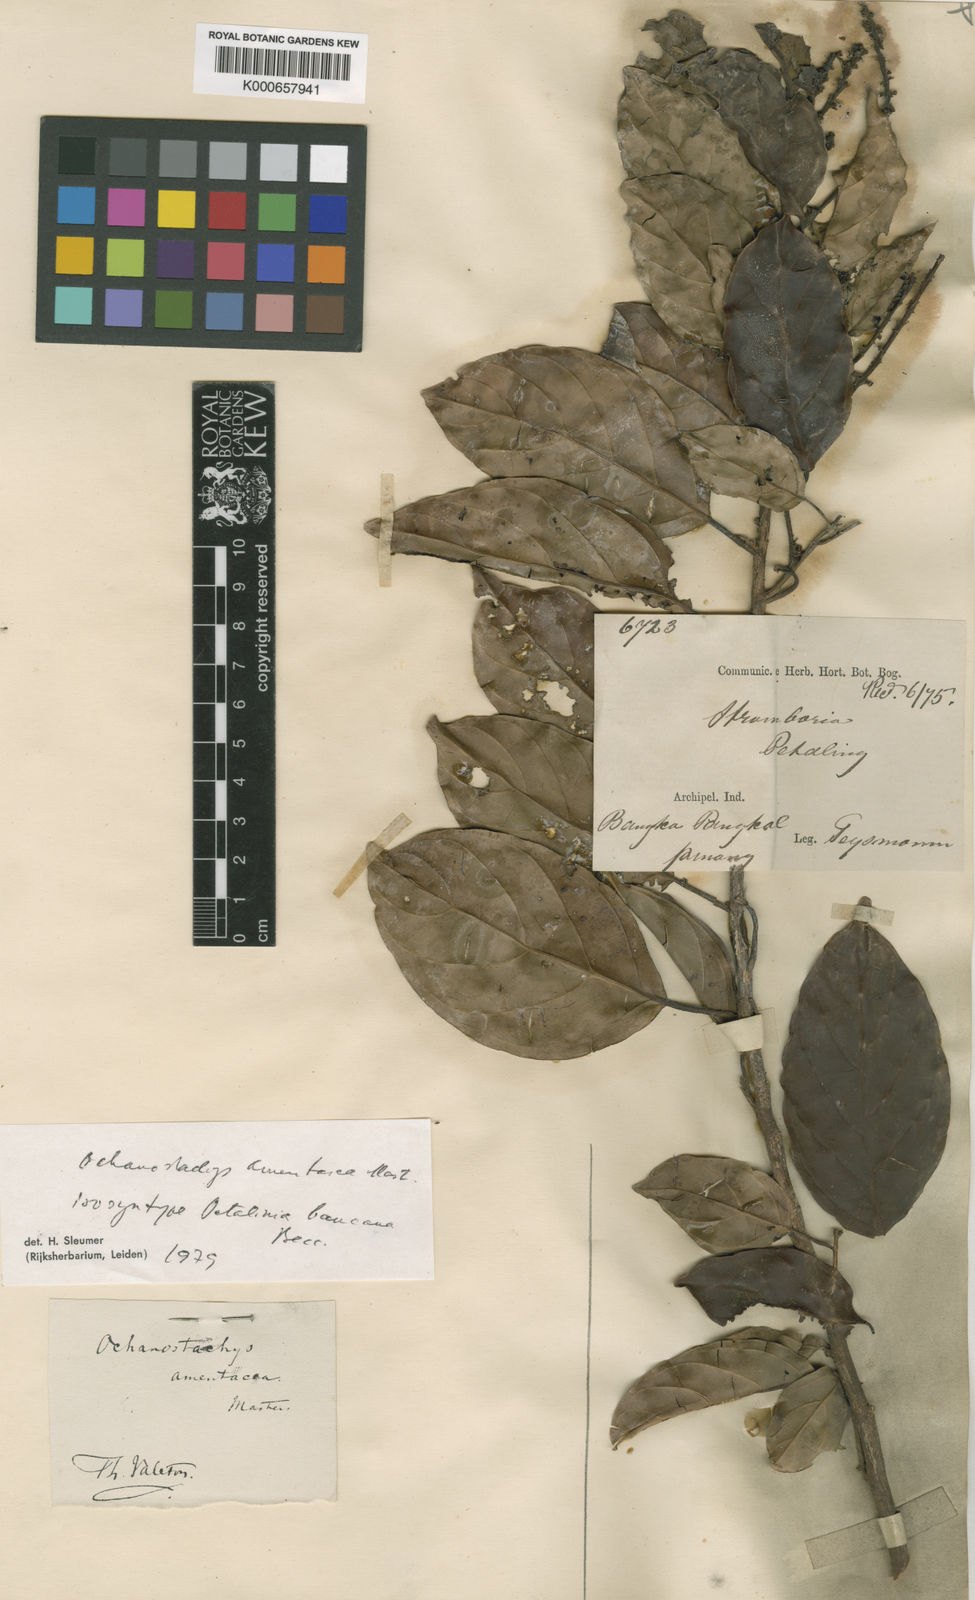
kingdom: Plantae
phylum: Tracheophyta
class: Magnoliopsida
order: Santalales
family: Coulaceae
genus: Ochanostachys
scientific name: Ochanostachys amentacea
